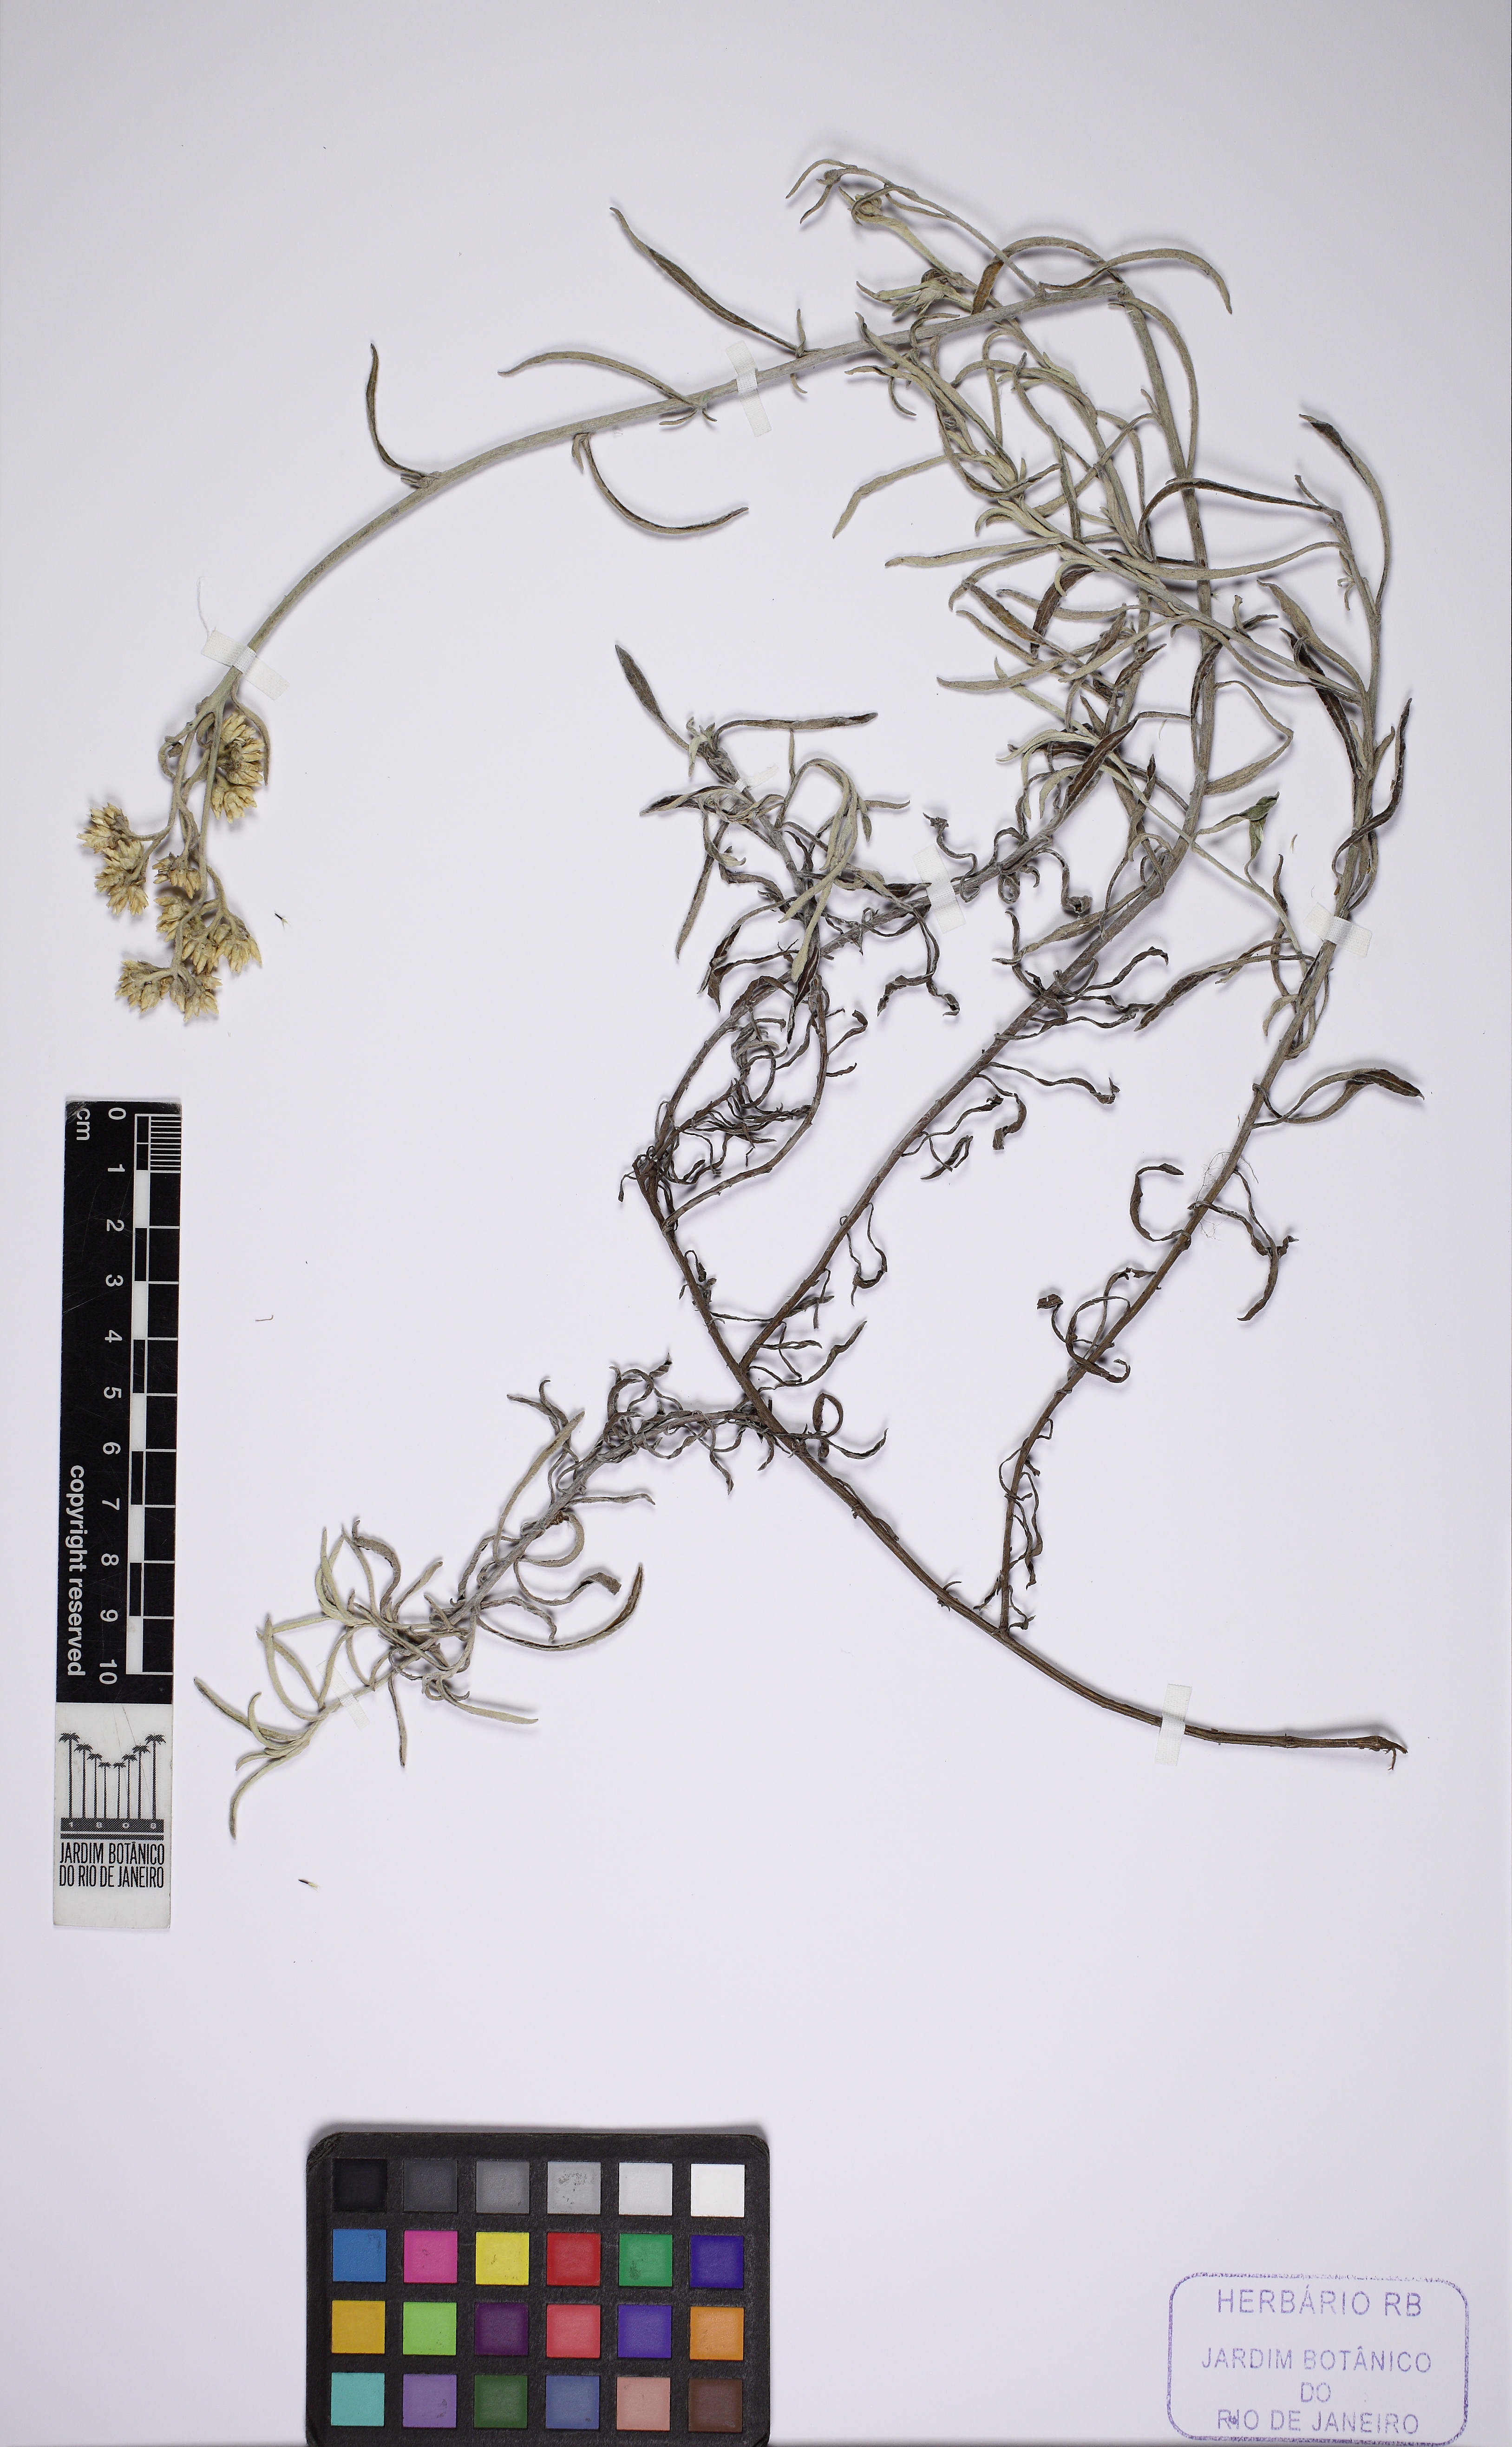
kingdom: Plantae
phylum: Tracheophyta
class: Magnoliopsida
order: Asterales
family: Asteraceae
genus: Achyrocline
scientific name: Achyrocline satureioides
